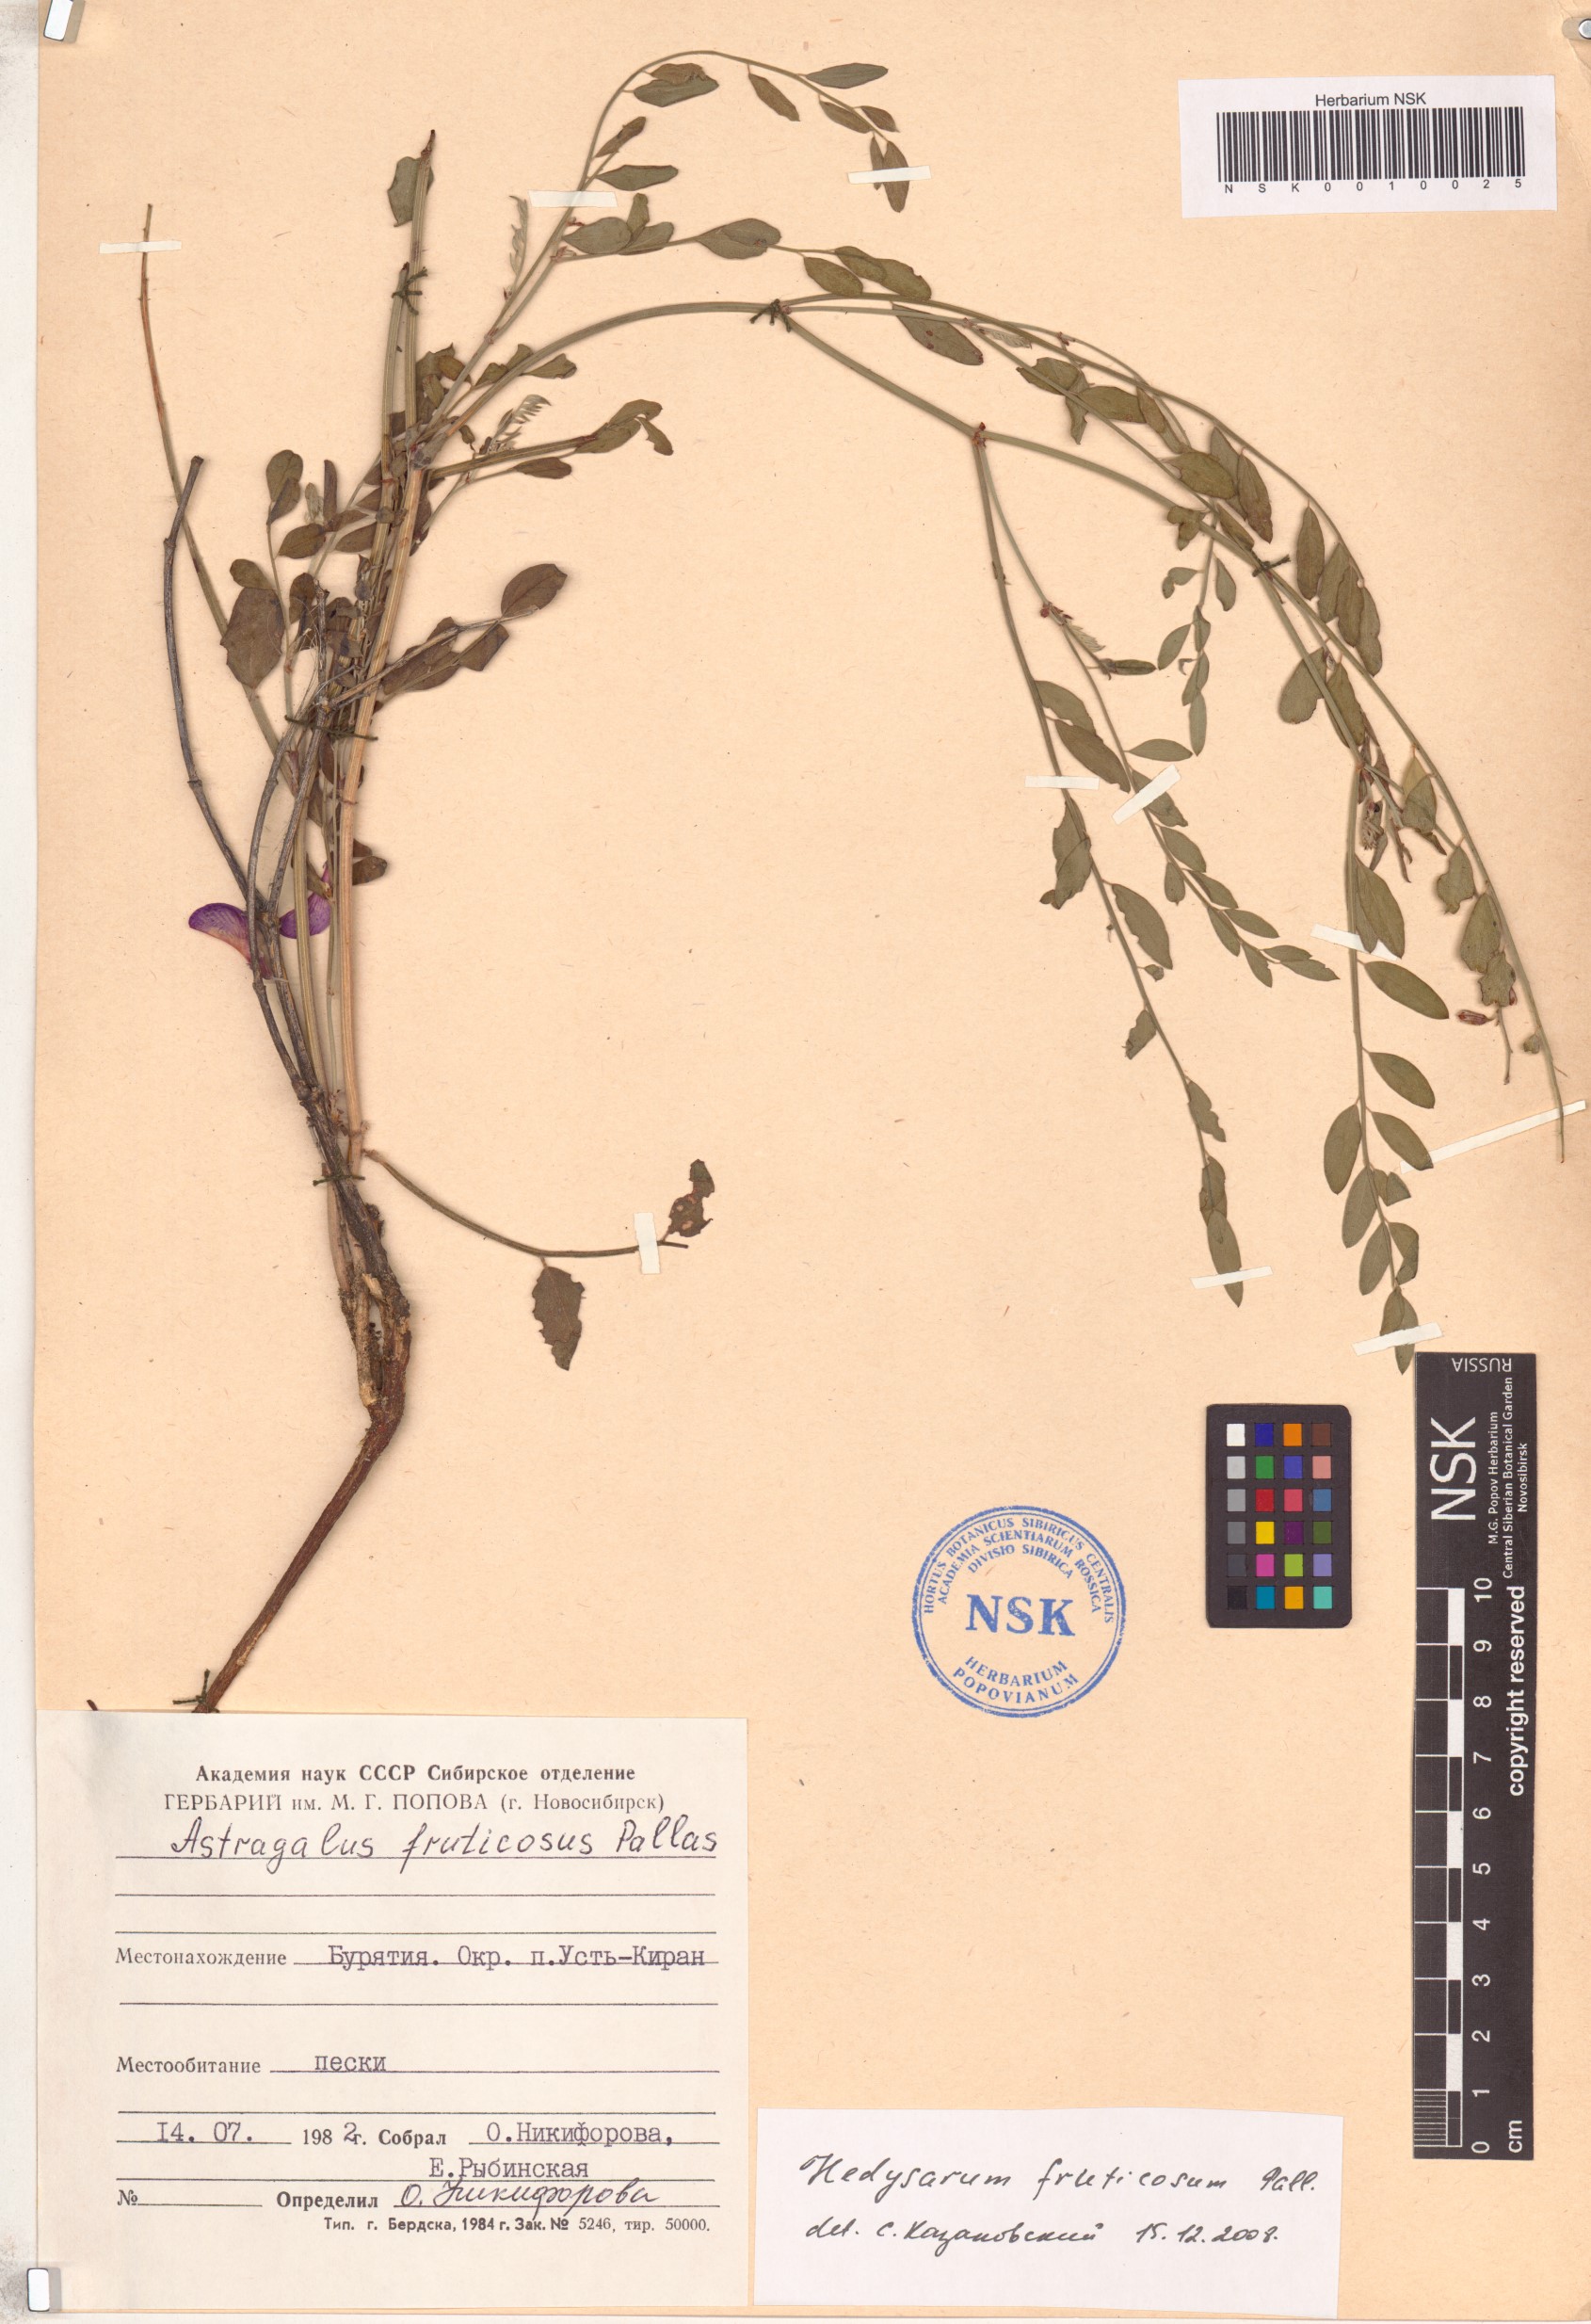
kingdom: Plantae
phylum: Tracheophyta
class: Magnoliopsida
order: Fabales
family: Fabaceae
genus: Corethrodendron
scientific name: Corethrodendron fruticosum
